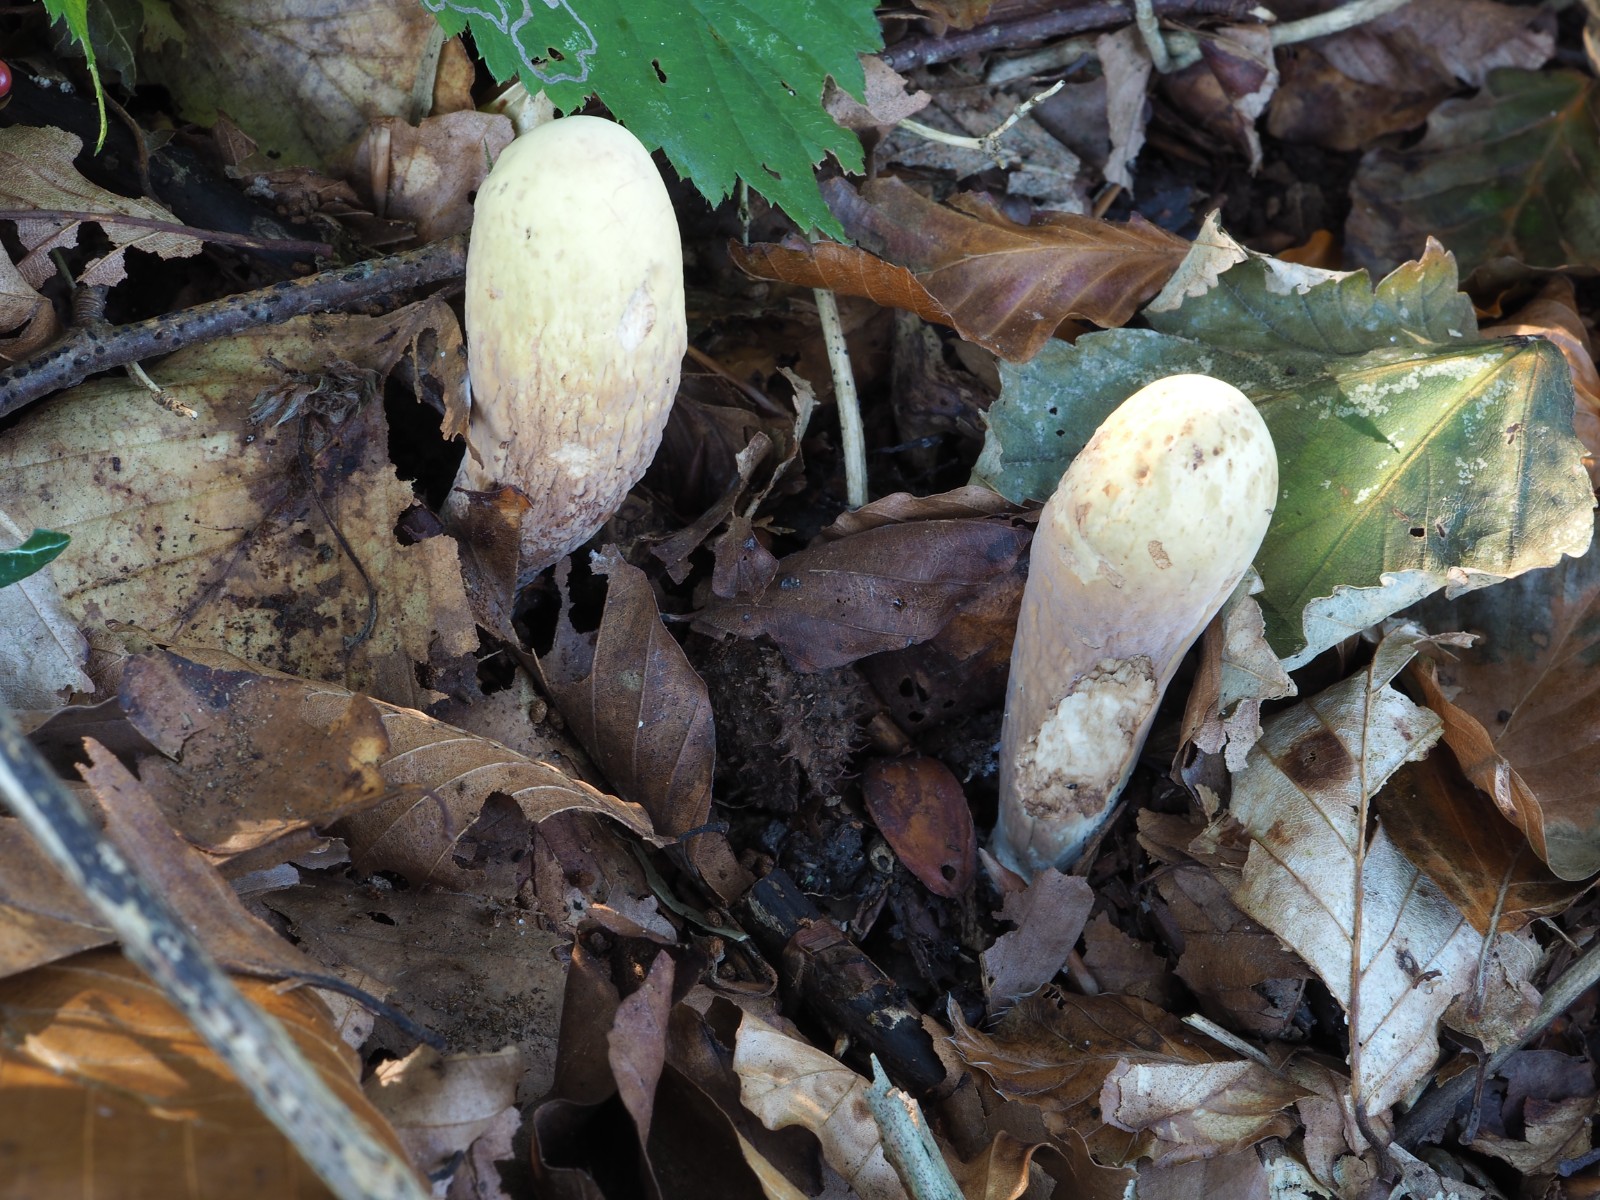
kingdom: Fungi
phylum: Basidiomycota
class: Agaricomycetes
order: Gomphales
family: Clavariadelphaceae
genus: Clavariadelphus
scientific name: Clavariadelphus pistillaris
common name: herkules-kæmpekølle
